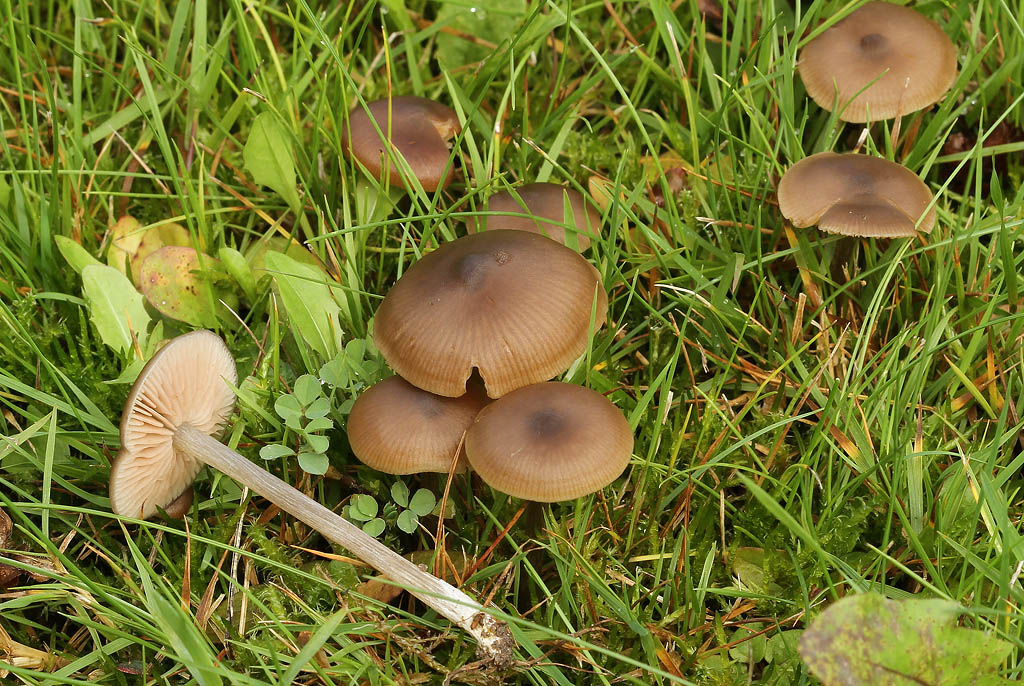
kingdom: Fungi
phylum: Basidiomycota
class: Agaricomycetes
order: Agaricales
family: Entolomataceae
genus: Entoloma
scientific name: Entoloma sericeum
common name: silkeglinsende rødblad
